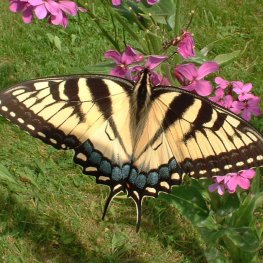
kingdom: Animalia
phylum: Arthropoda
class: Insecta
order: Lepidoptera
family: Papilionidae
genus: Pterourus
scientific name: Pterourus glaucus
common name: Eastern Tiger Swallowtail
